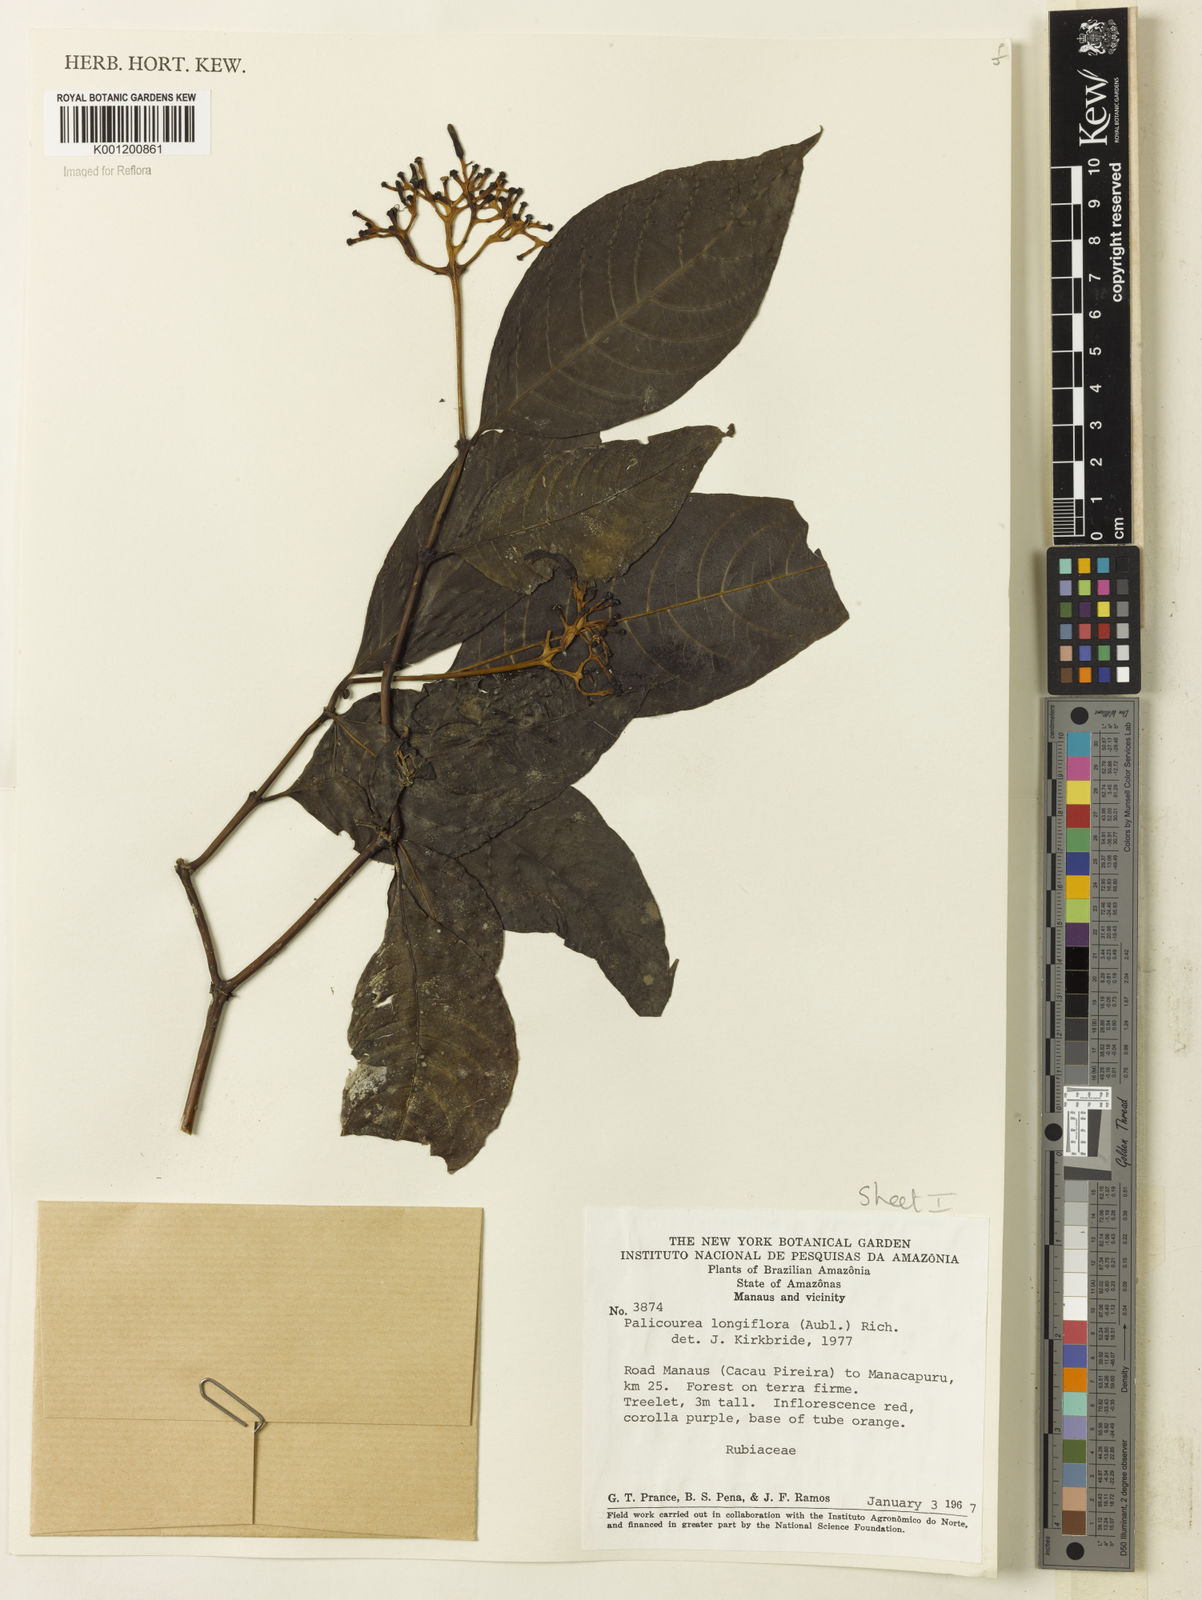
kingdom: Plantae
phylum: Tracheophyta
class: Magnoliopsida
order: Gentianales
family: Rubiaceae
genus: Palicourea
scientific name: Palicourea longiflora
